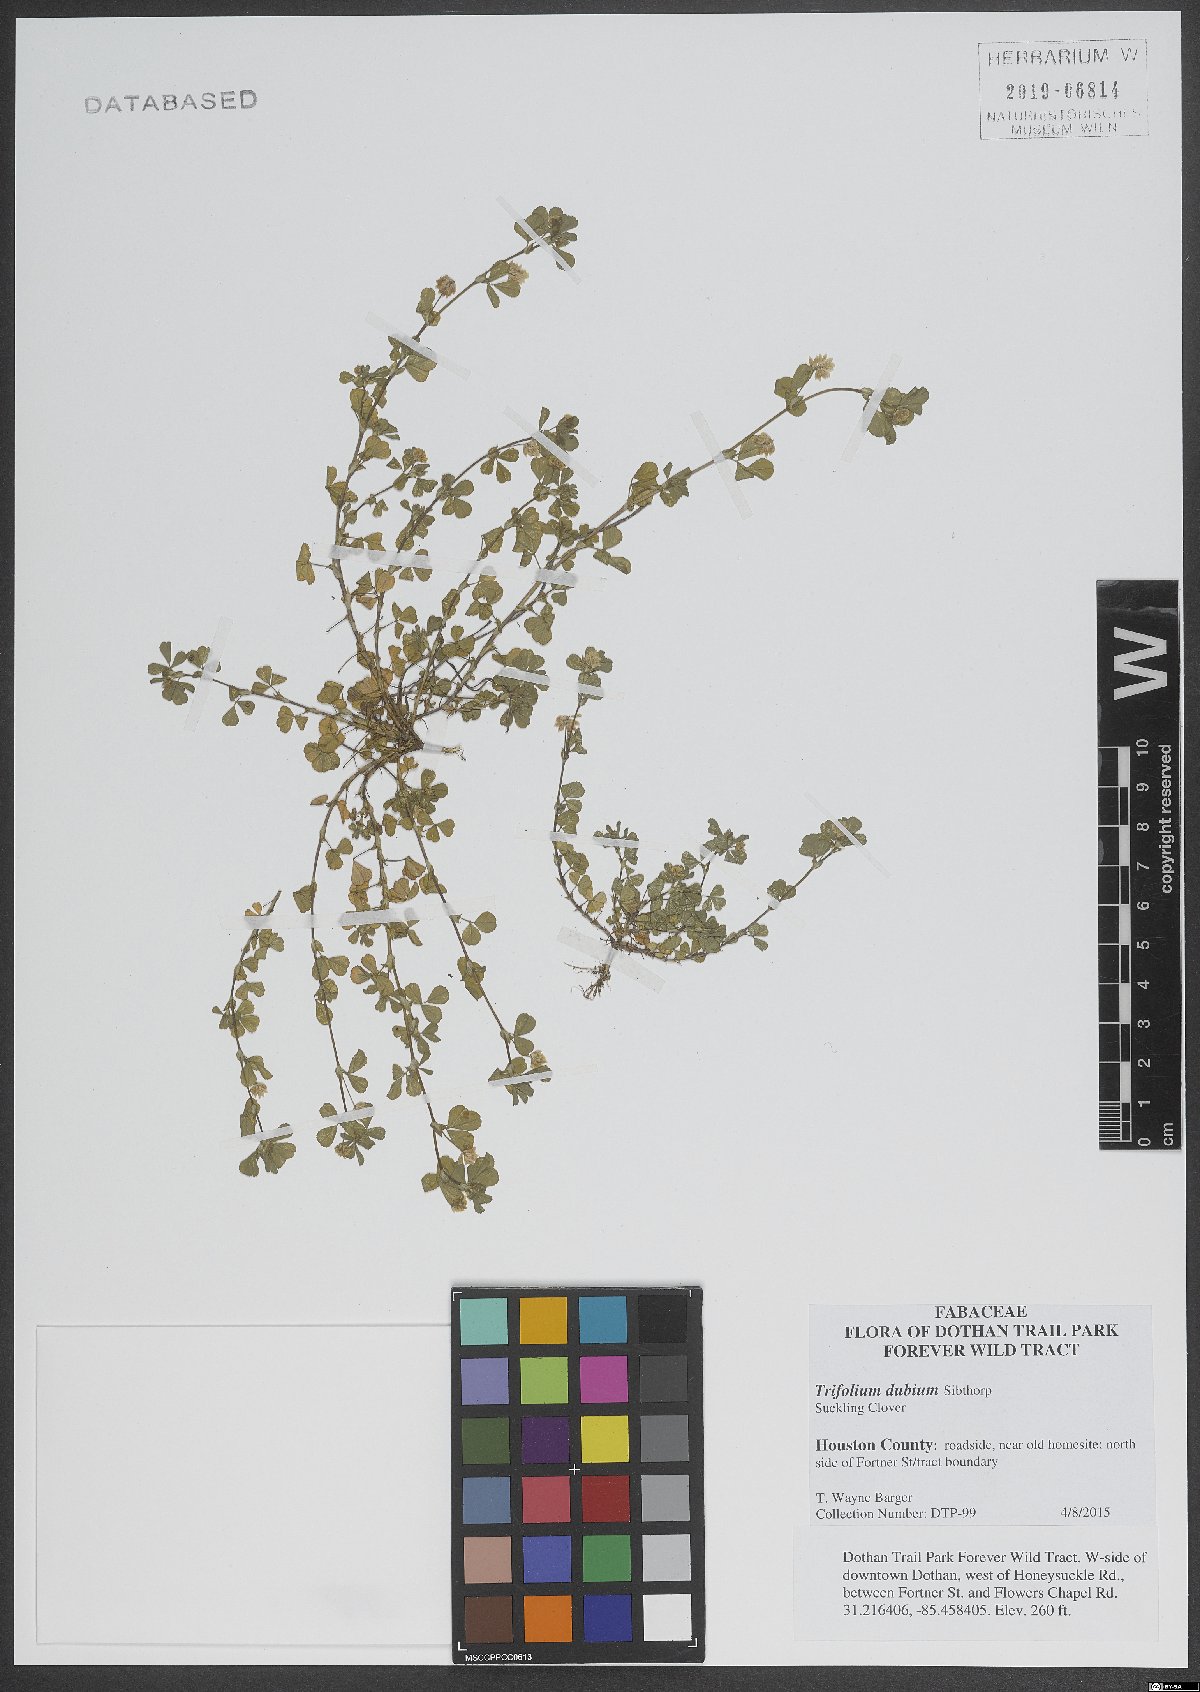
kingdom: Plantae
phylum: Tracheophyta
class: Magnoliopsida
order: Fabales
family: Fabaceae
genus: Trifolium
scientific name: Trifolium dubium
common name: Suckling clover
